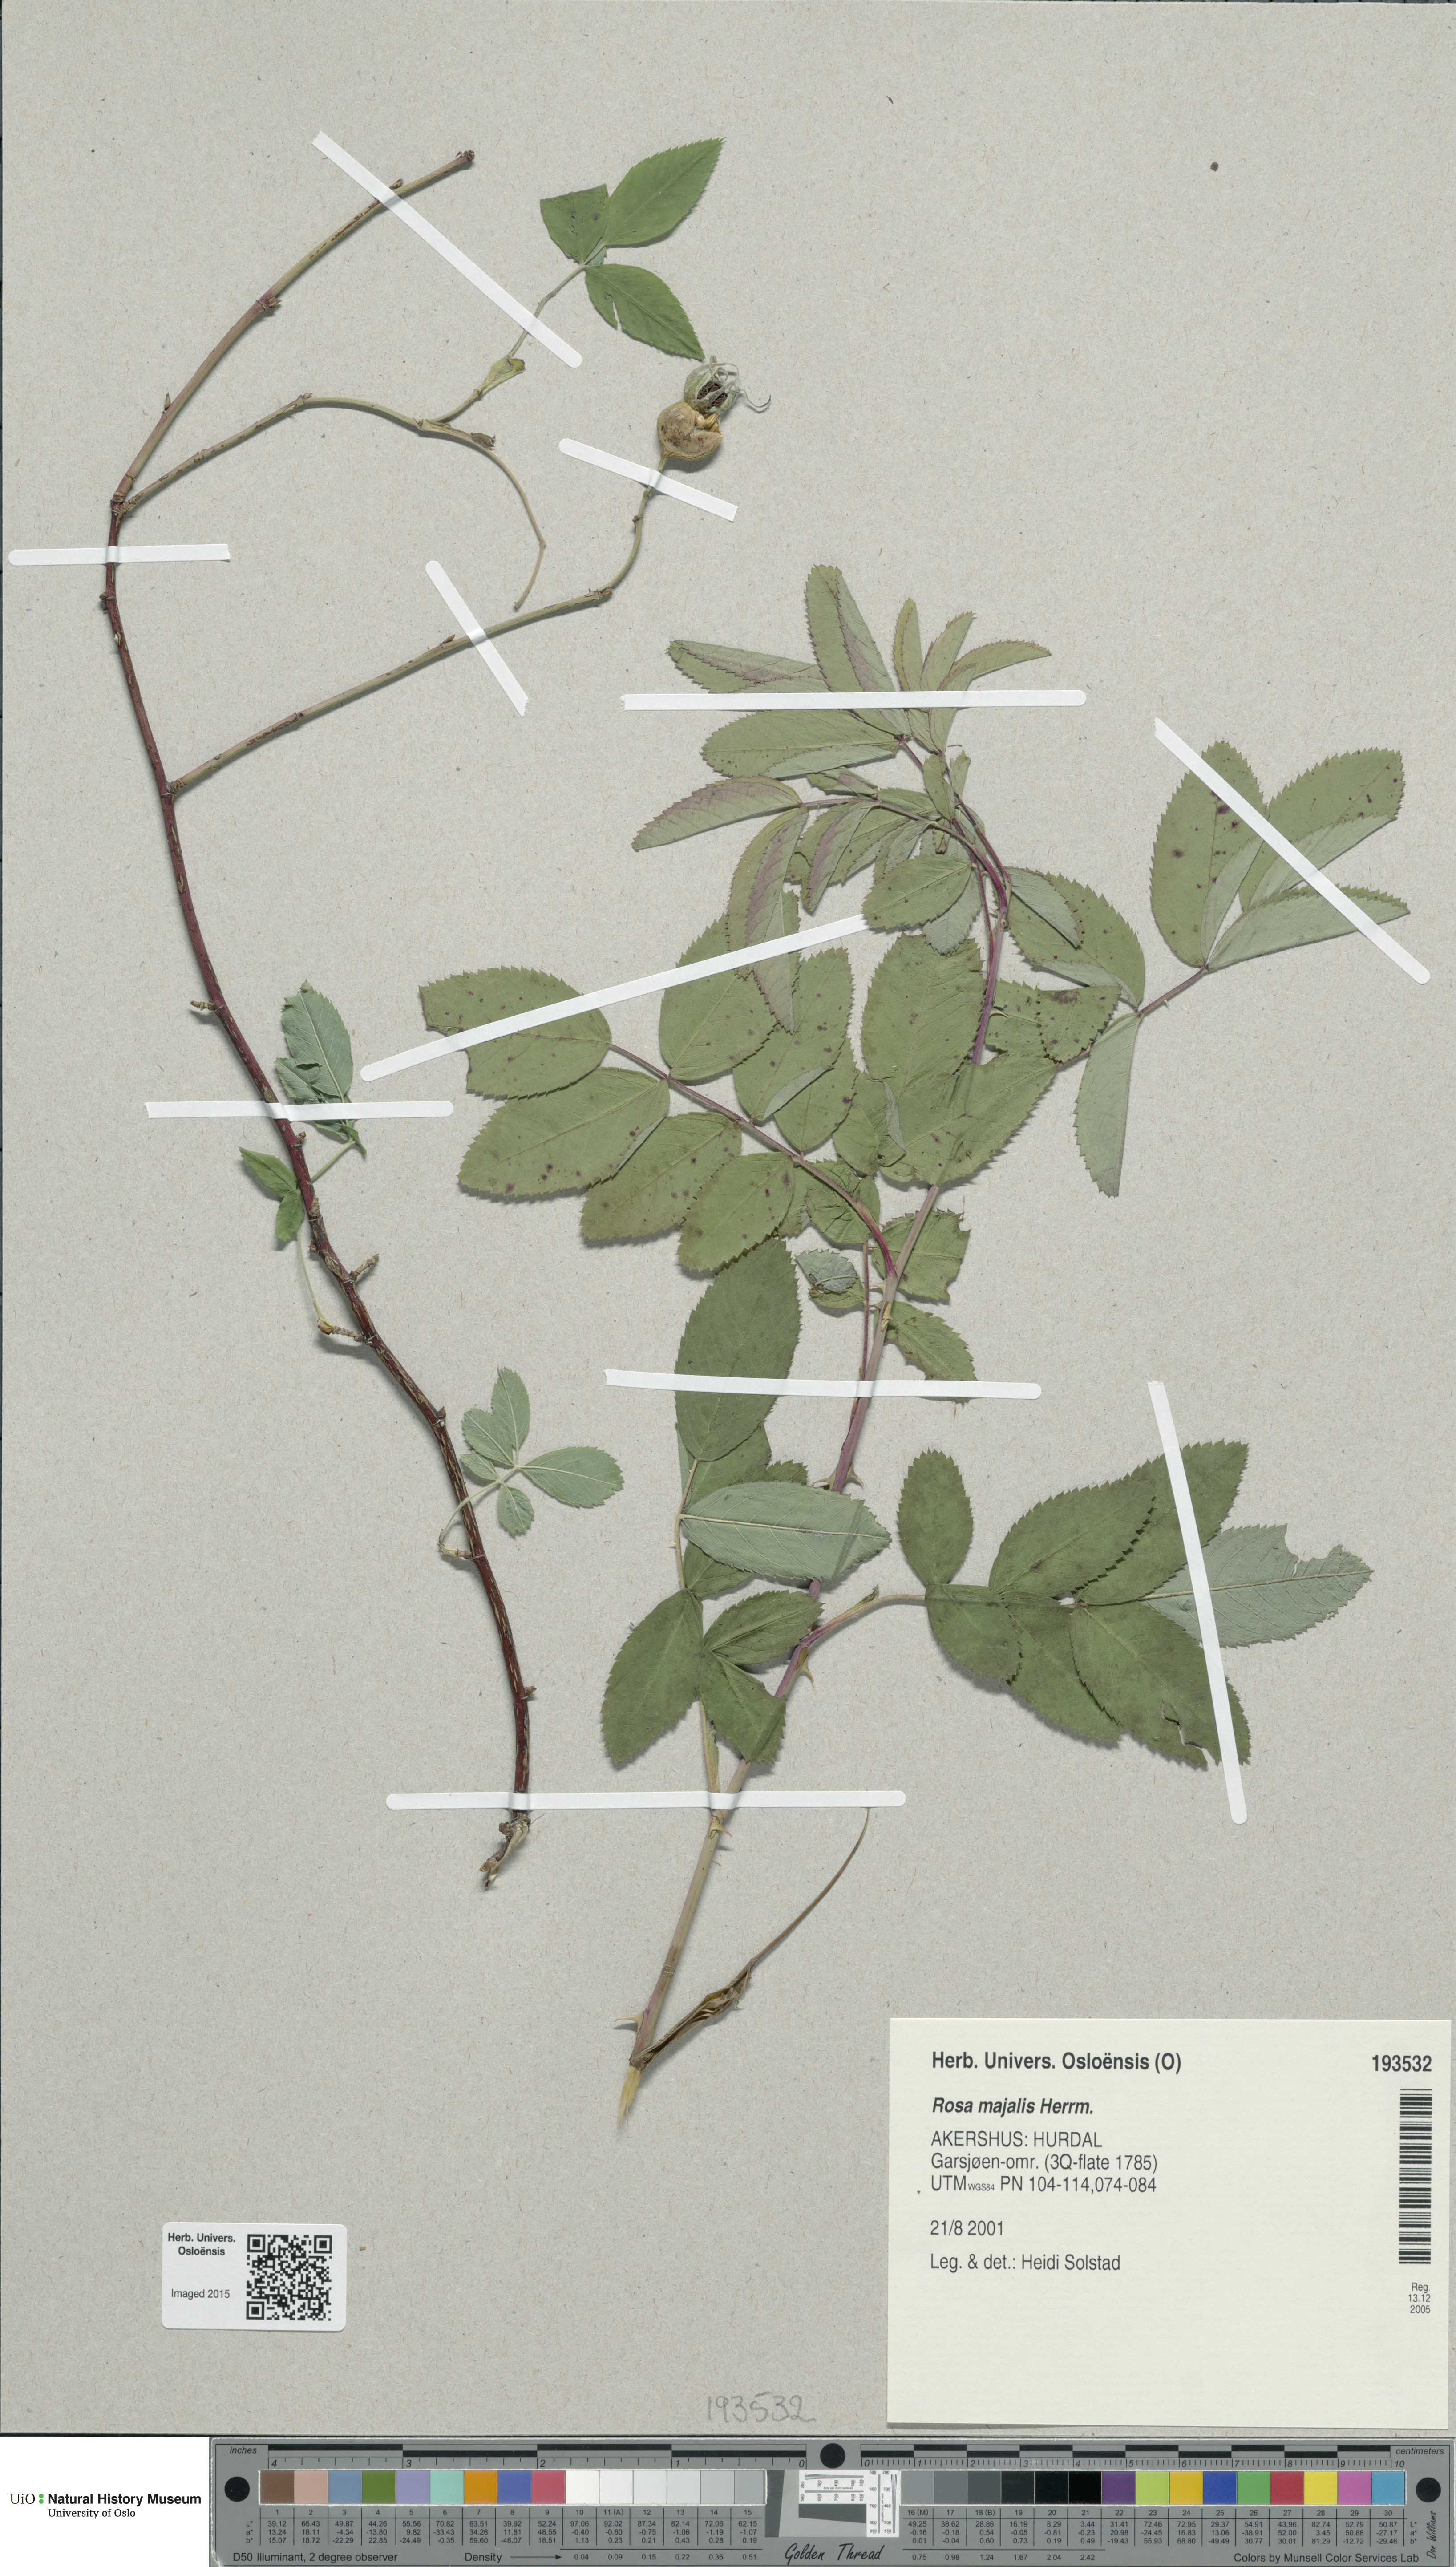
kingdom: Plantae
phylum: Tracheophyta
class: Magnoliopsida
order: Rosales
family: Rosaceae
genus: Rosa
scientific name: Rosa majalis
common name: Cinnamon rose
